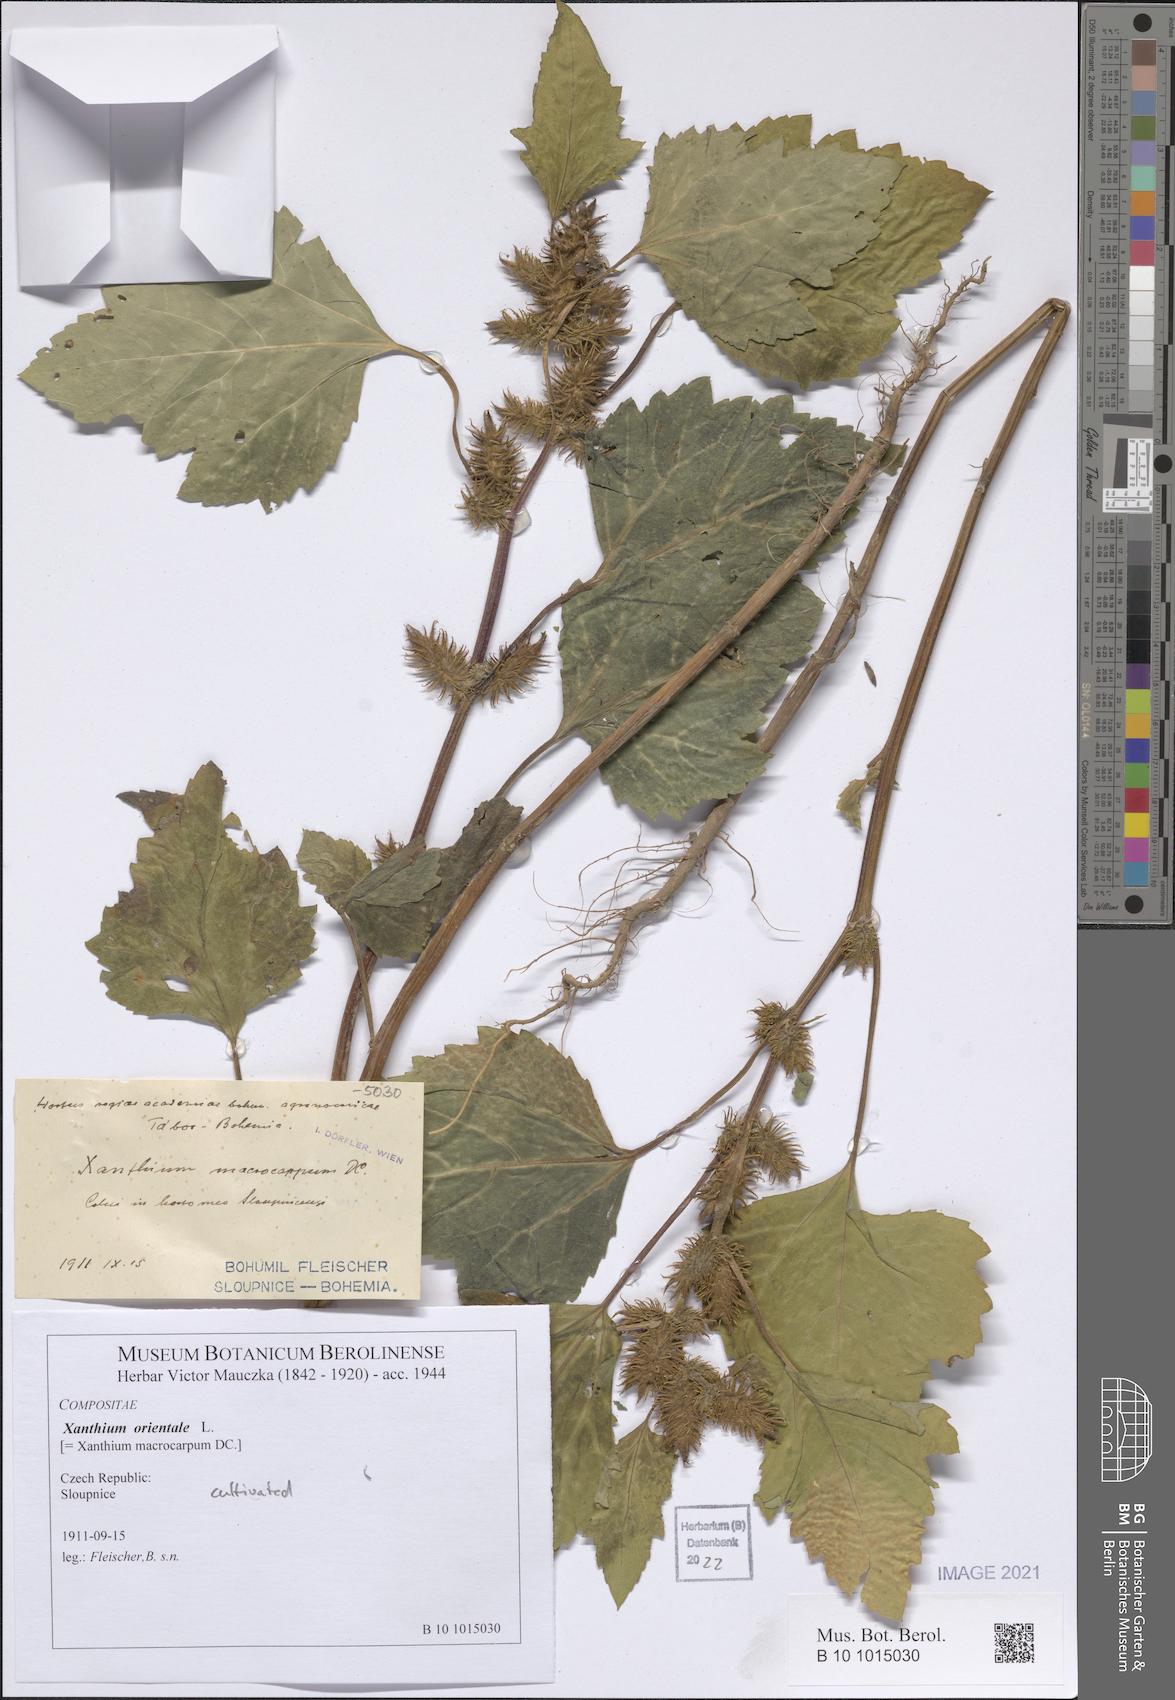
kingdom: Plantae
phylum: Tracheophyta
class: Magnoliopsida
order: Asterales
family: Asteraceae
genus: Xanthium
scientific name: Xanthium orientale
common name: Californian burr
